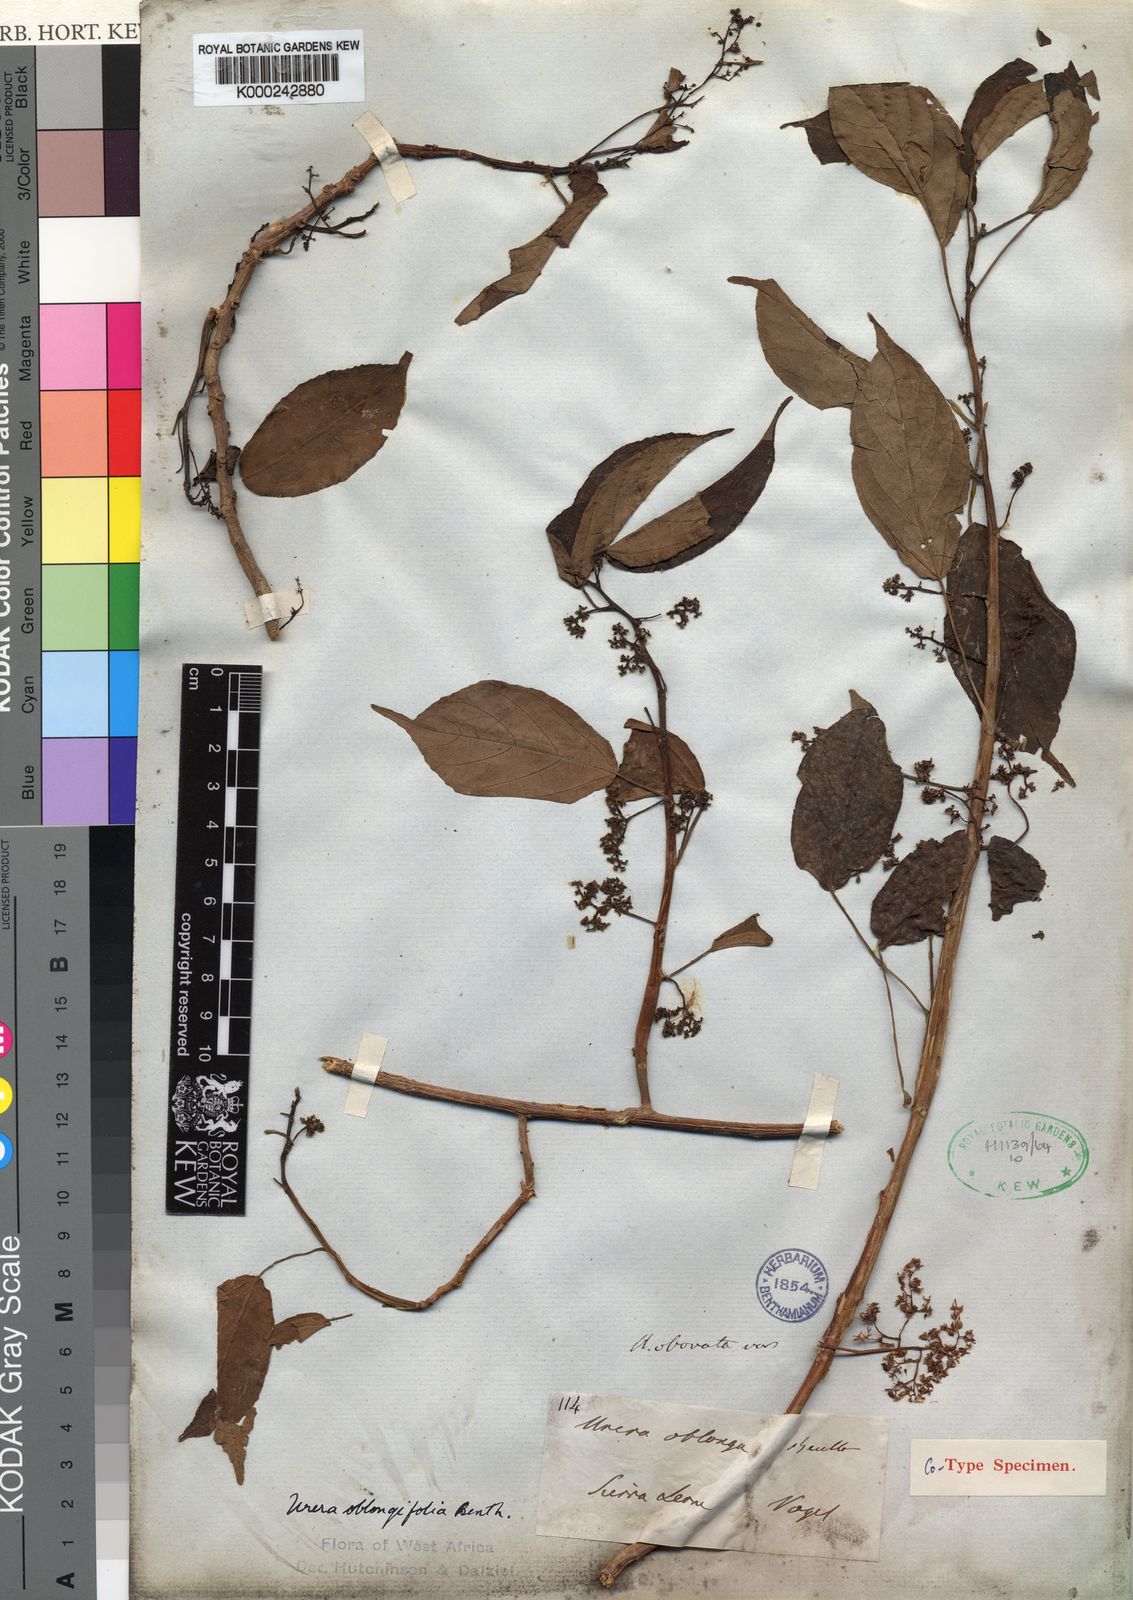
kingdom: Plantae
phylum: Tracheophyta
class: Magnoliopsida
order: Rosales
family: Urticaceae
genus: Scepocarpus
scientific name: Scepocarpus
